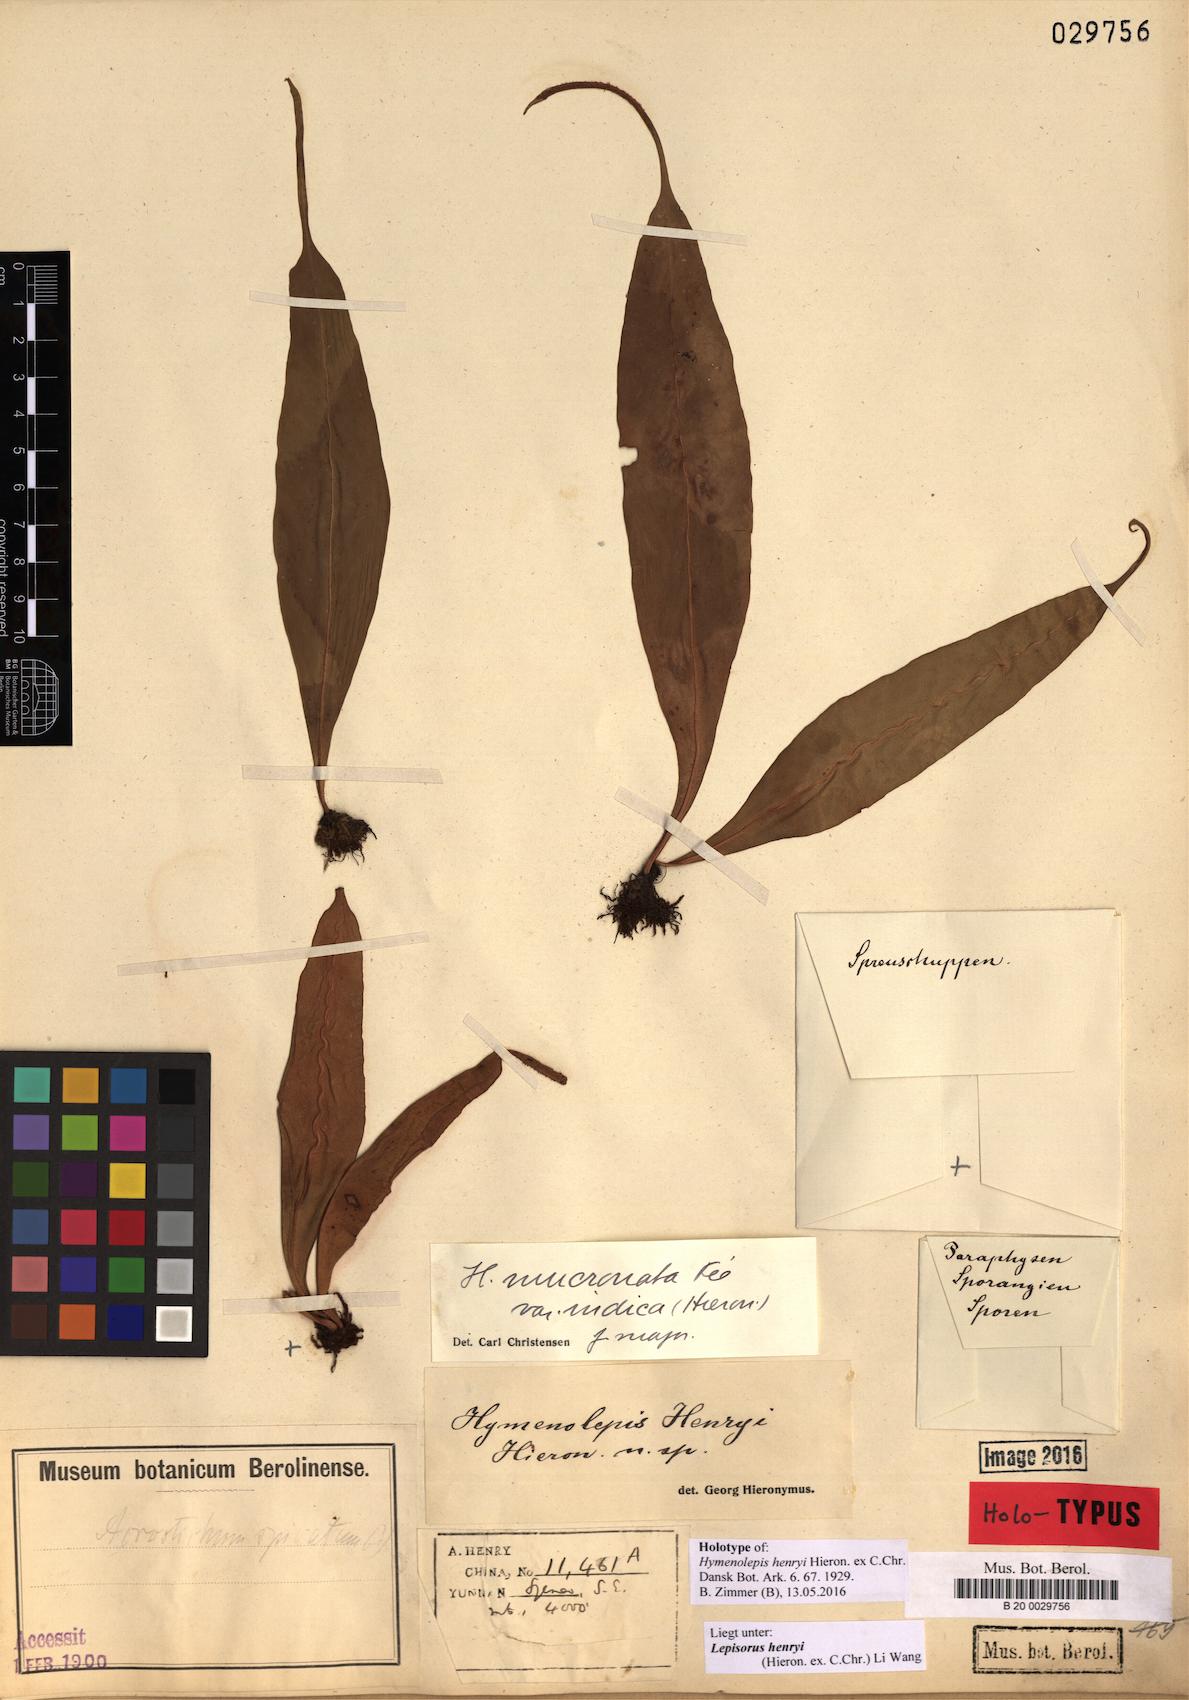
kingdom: Plantae
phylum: Tracheophyta
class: Polypodiopsida
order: Polypodiales
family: Polypodiaceae
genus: Lepisorus
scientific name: Lepisorus henryi
